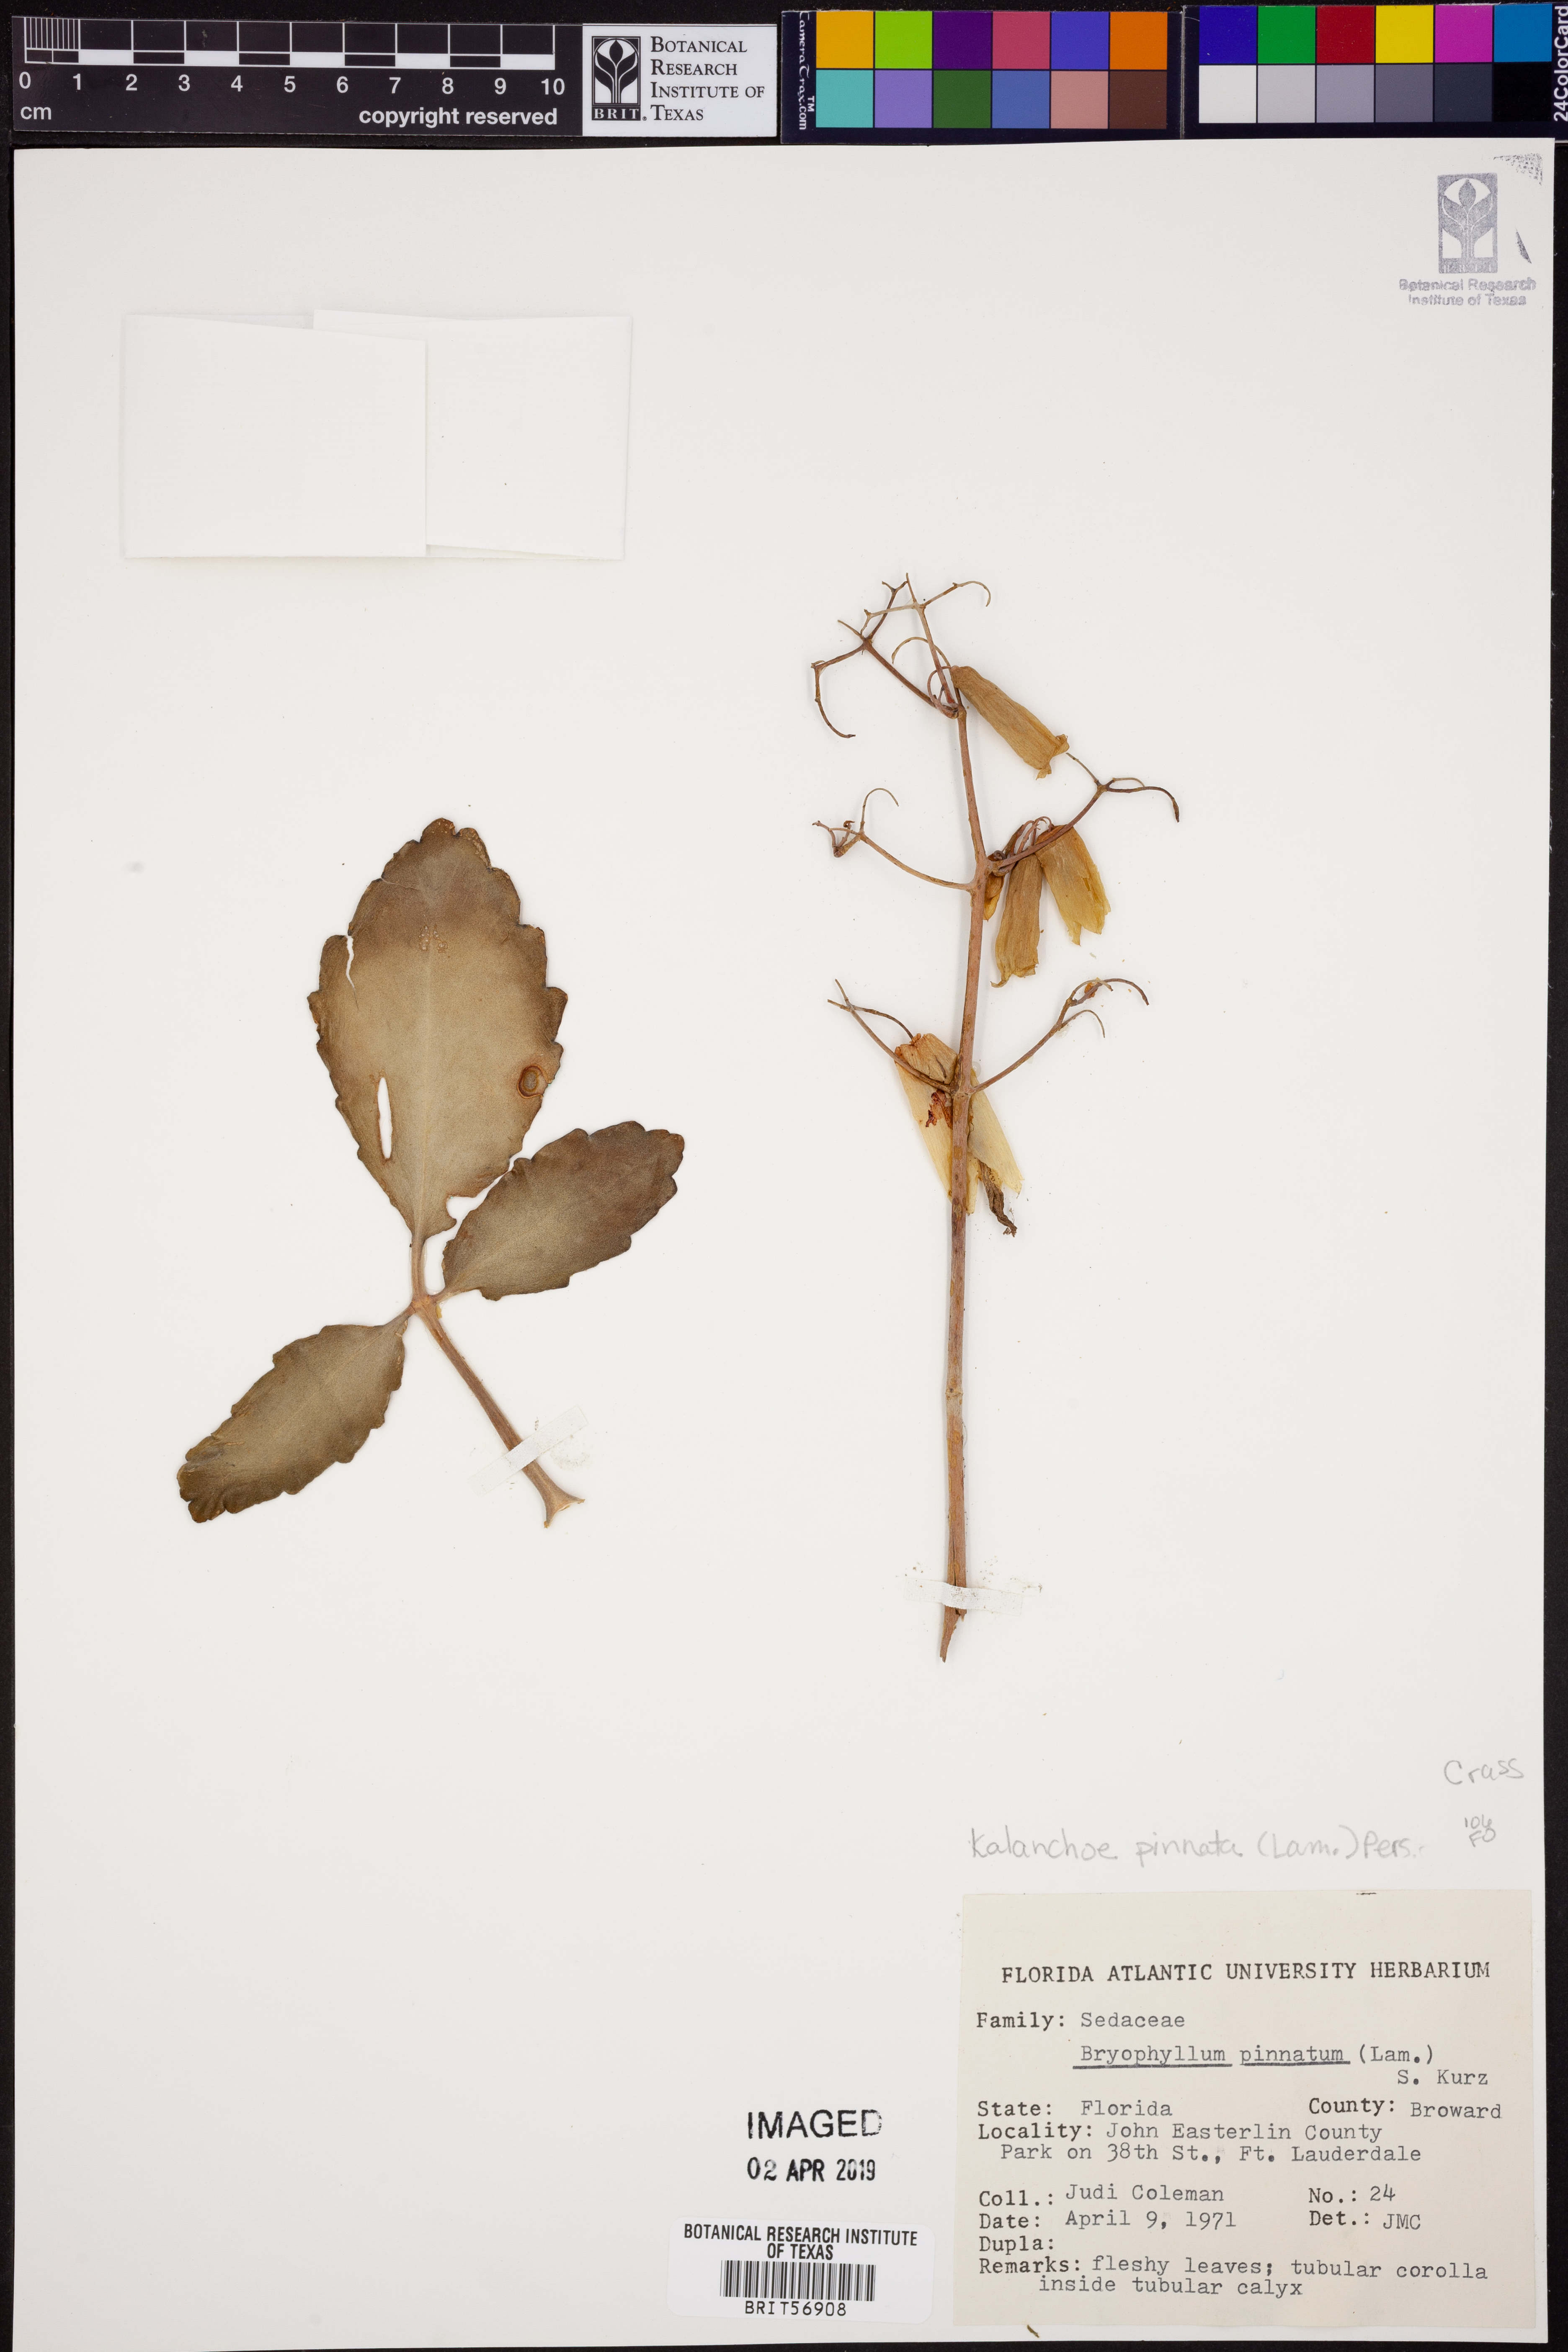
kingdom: Plantae
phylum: Tracheophyta
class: Magnoliopsida
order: Saxifragales
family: Crassulaceae
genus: Kalanchoe
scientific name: Kalanchoe pinnata
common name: Cathedral bells
